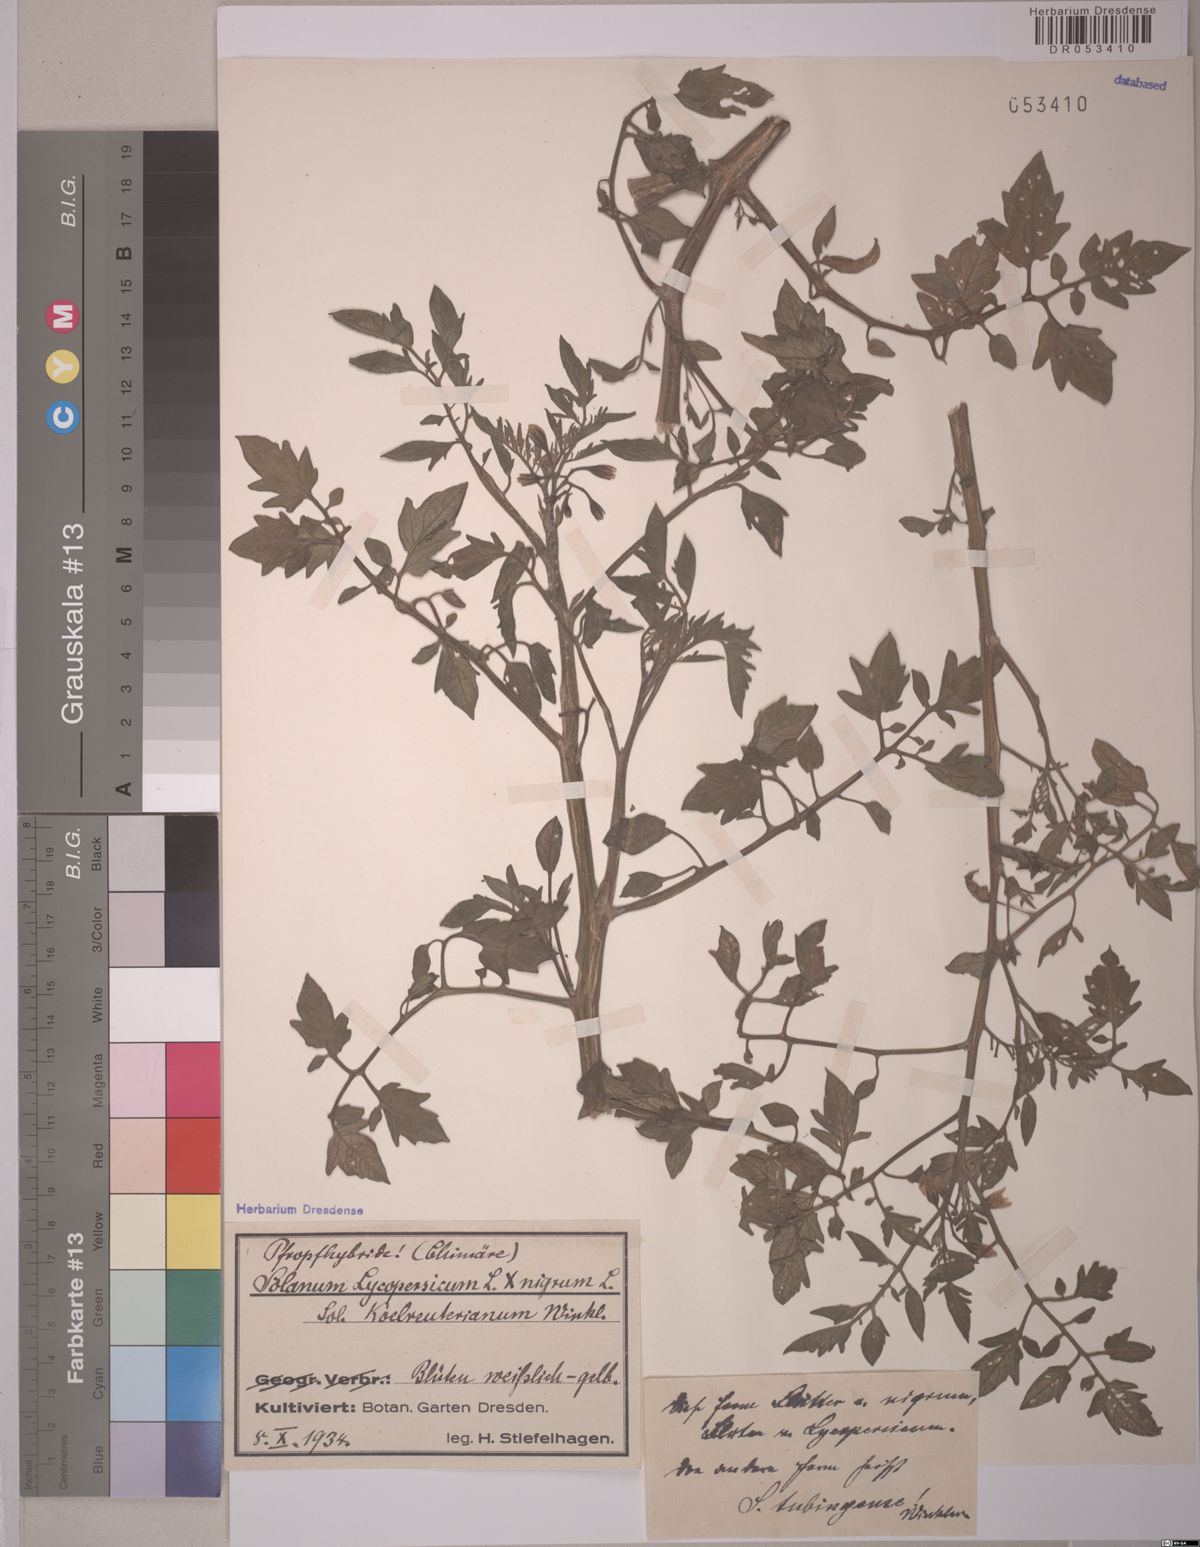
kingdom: Plantae
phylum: Tracheophyta
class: Magnoliopsida
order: Solanales
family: Solanaceae
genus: Solanum
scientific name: Solanum
